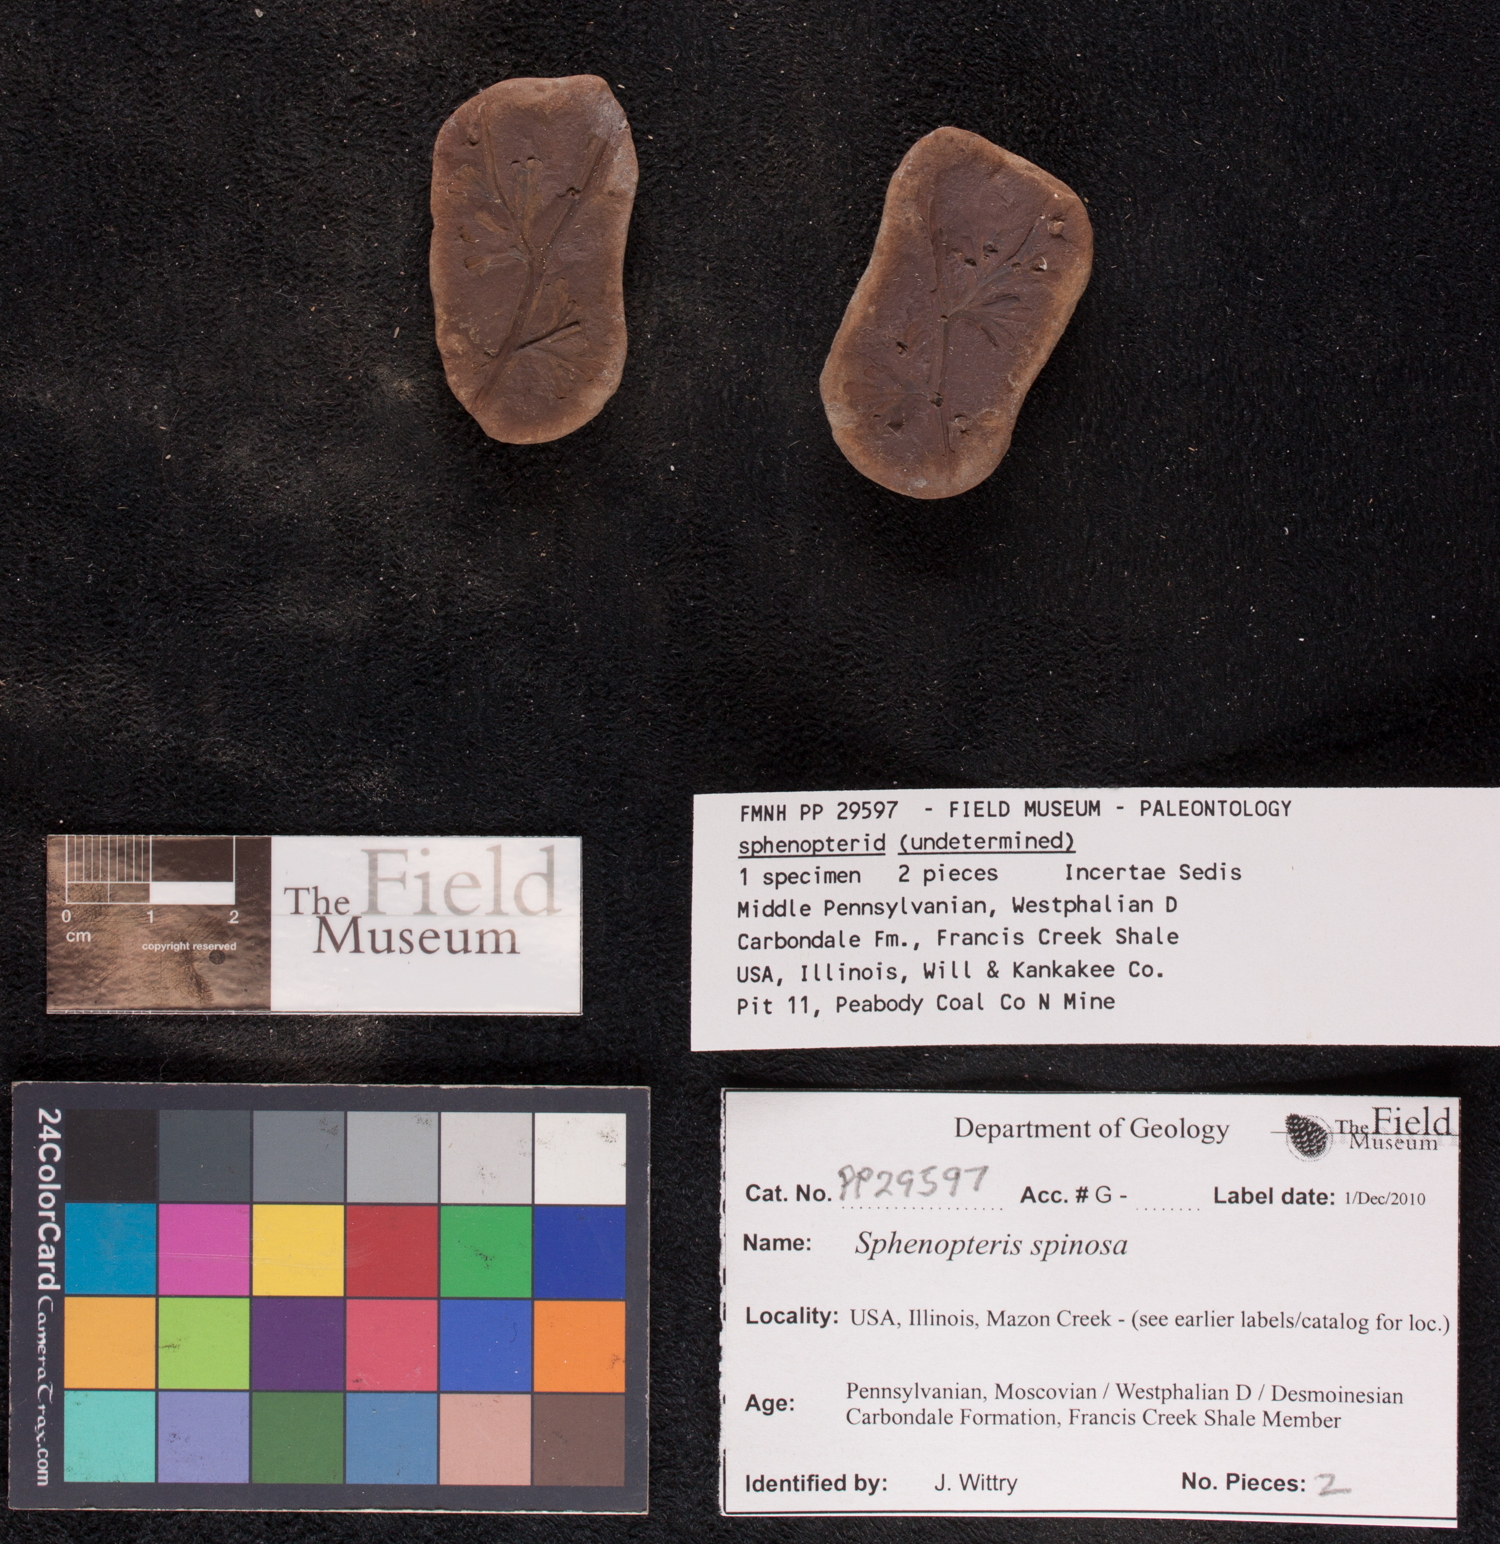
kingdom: Plantae
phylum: Tracheophyta
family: Lyginopteridaceae
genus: Sphenopteris
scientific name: Sphenopteris
